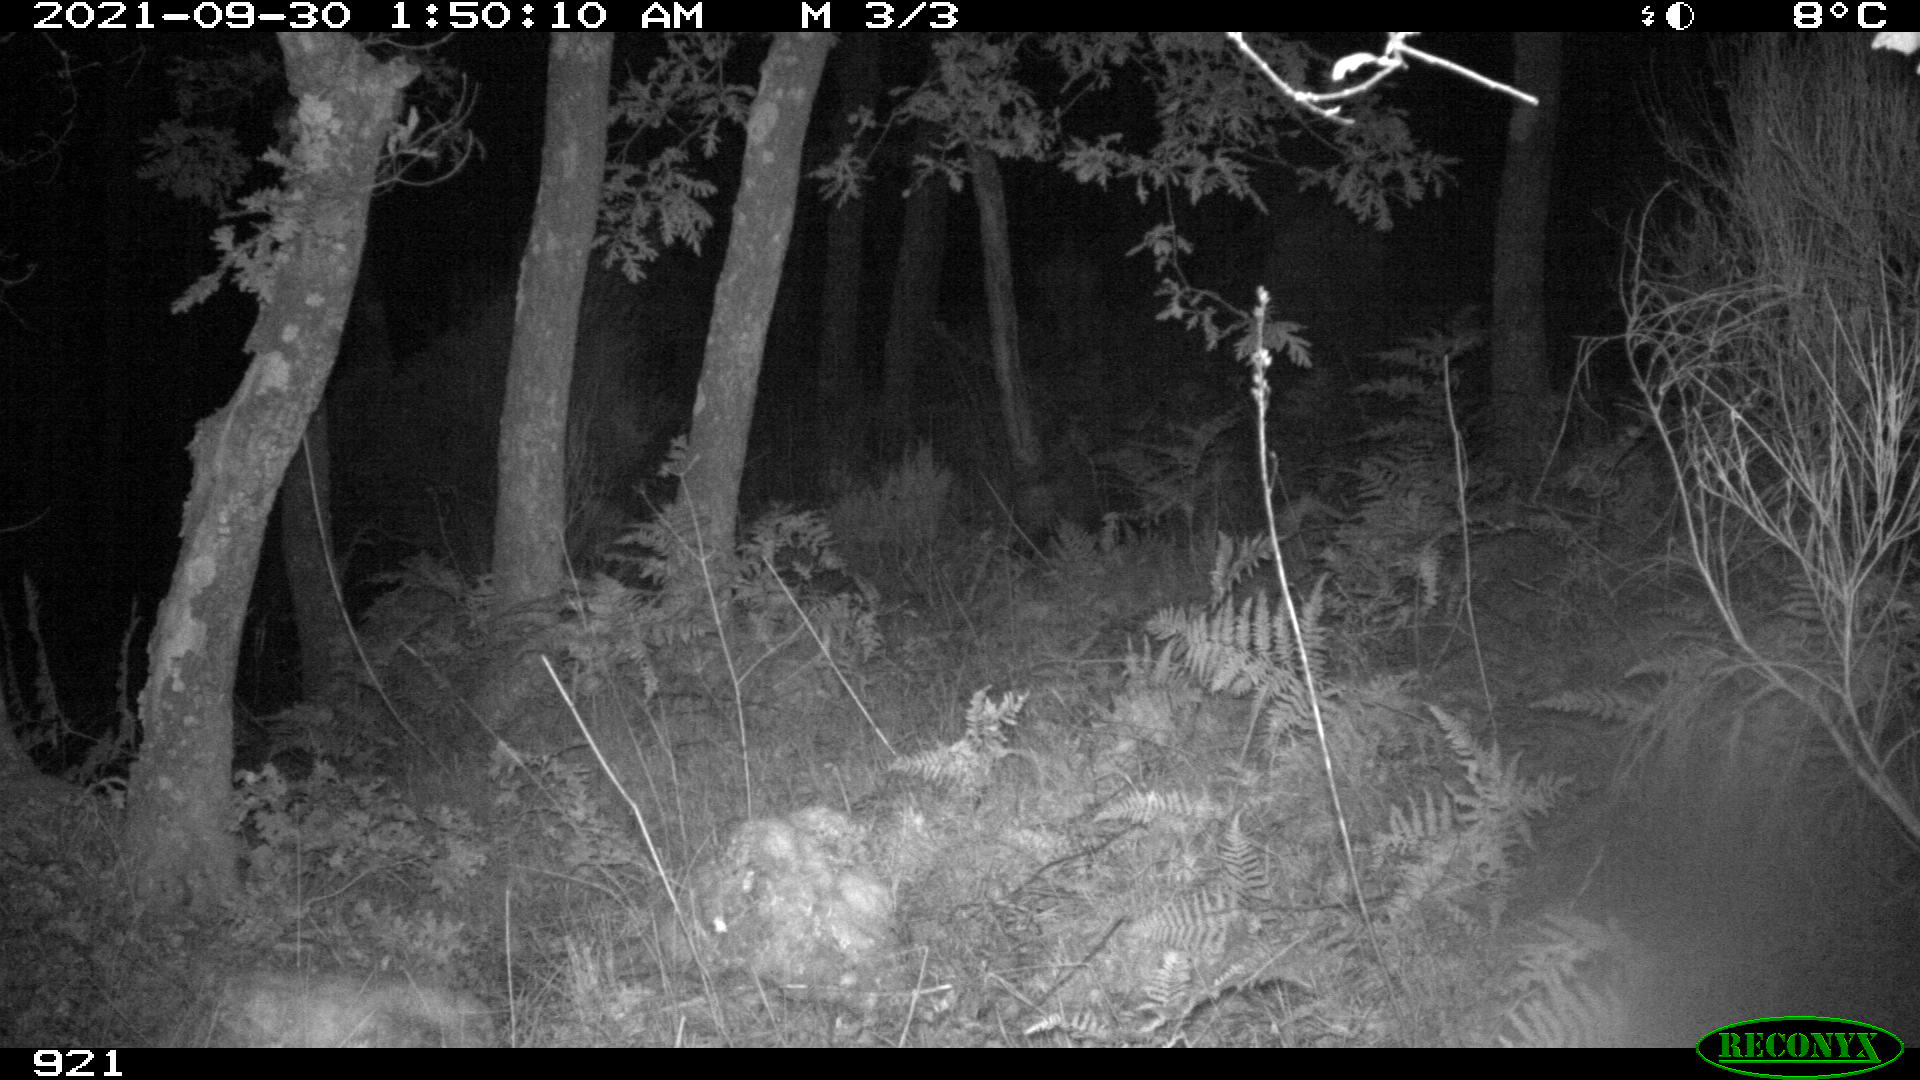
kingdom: Animalia
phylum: Chordata
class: Mammalia
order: Artiodactyla
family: Suidae
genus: Sus
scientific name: Sus scrofa
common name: Wild boar
